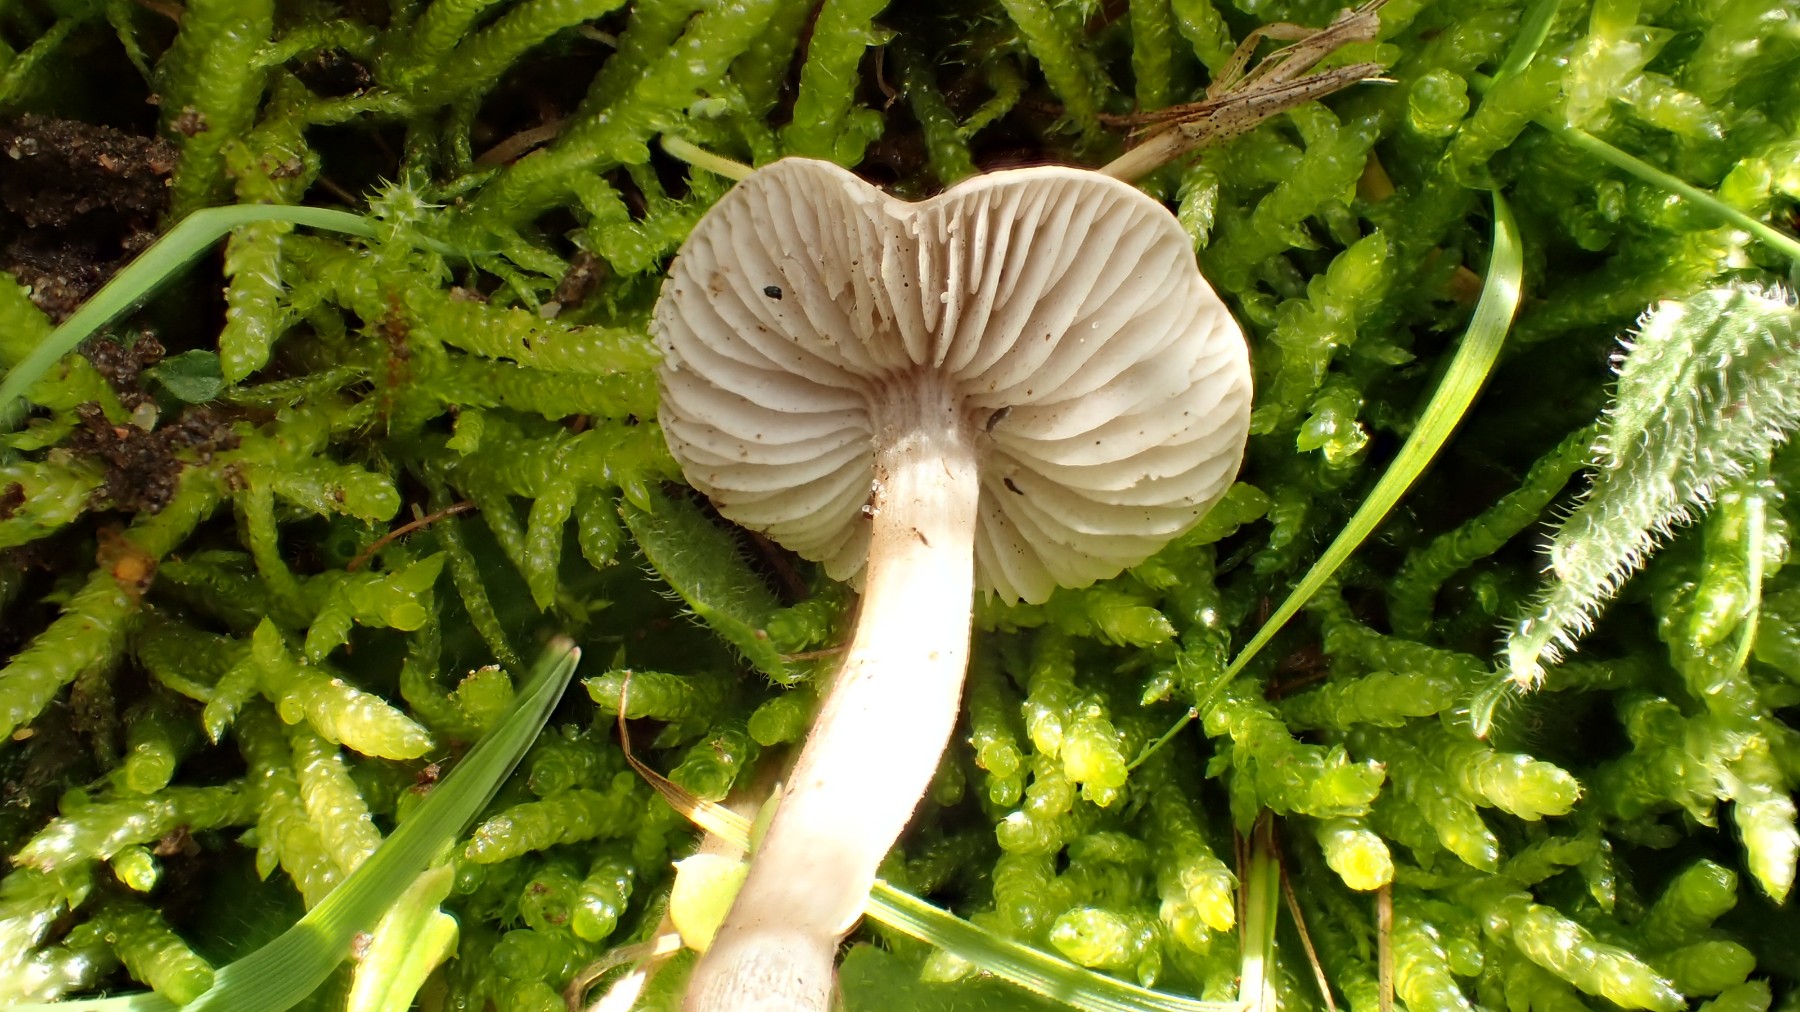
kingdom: Fungi
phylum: Basidiomycota
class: Agaricomycetes
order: Agaricales
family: Tricholomataceae
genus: Dermoloma
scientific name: Dermoloma cuneifolium
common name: eng-nonnehat
